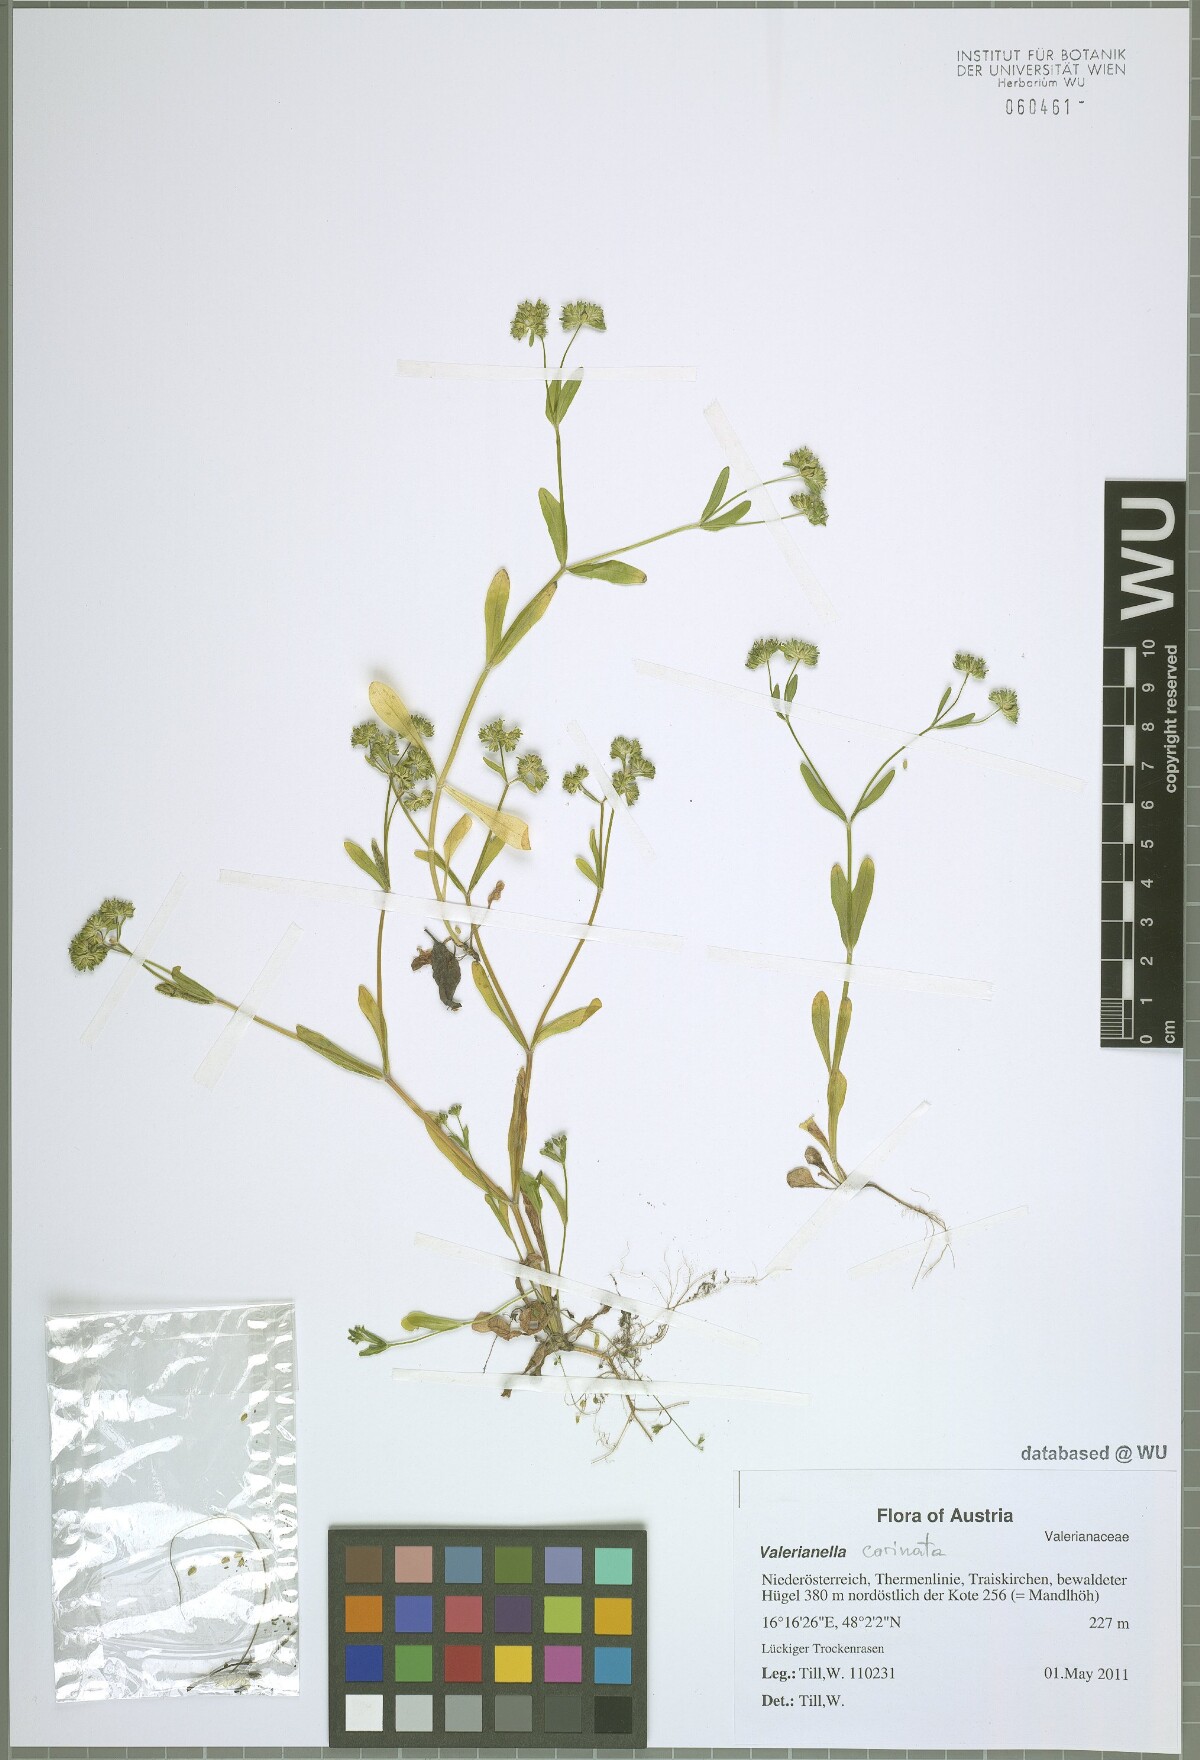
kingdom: Plantae
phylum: Tracheophyta
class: Magnoliopsida
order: Dipsacales
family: Caprifoliaceae
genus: Valerianella
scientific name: Valerianella carinata
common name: Keeled-fruited cornsalad
